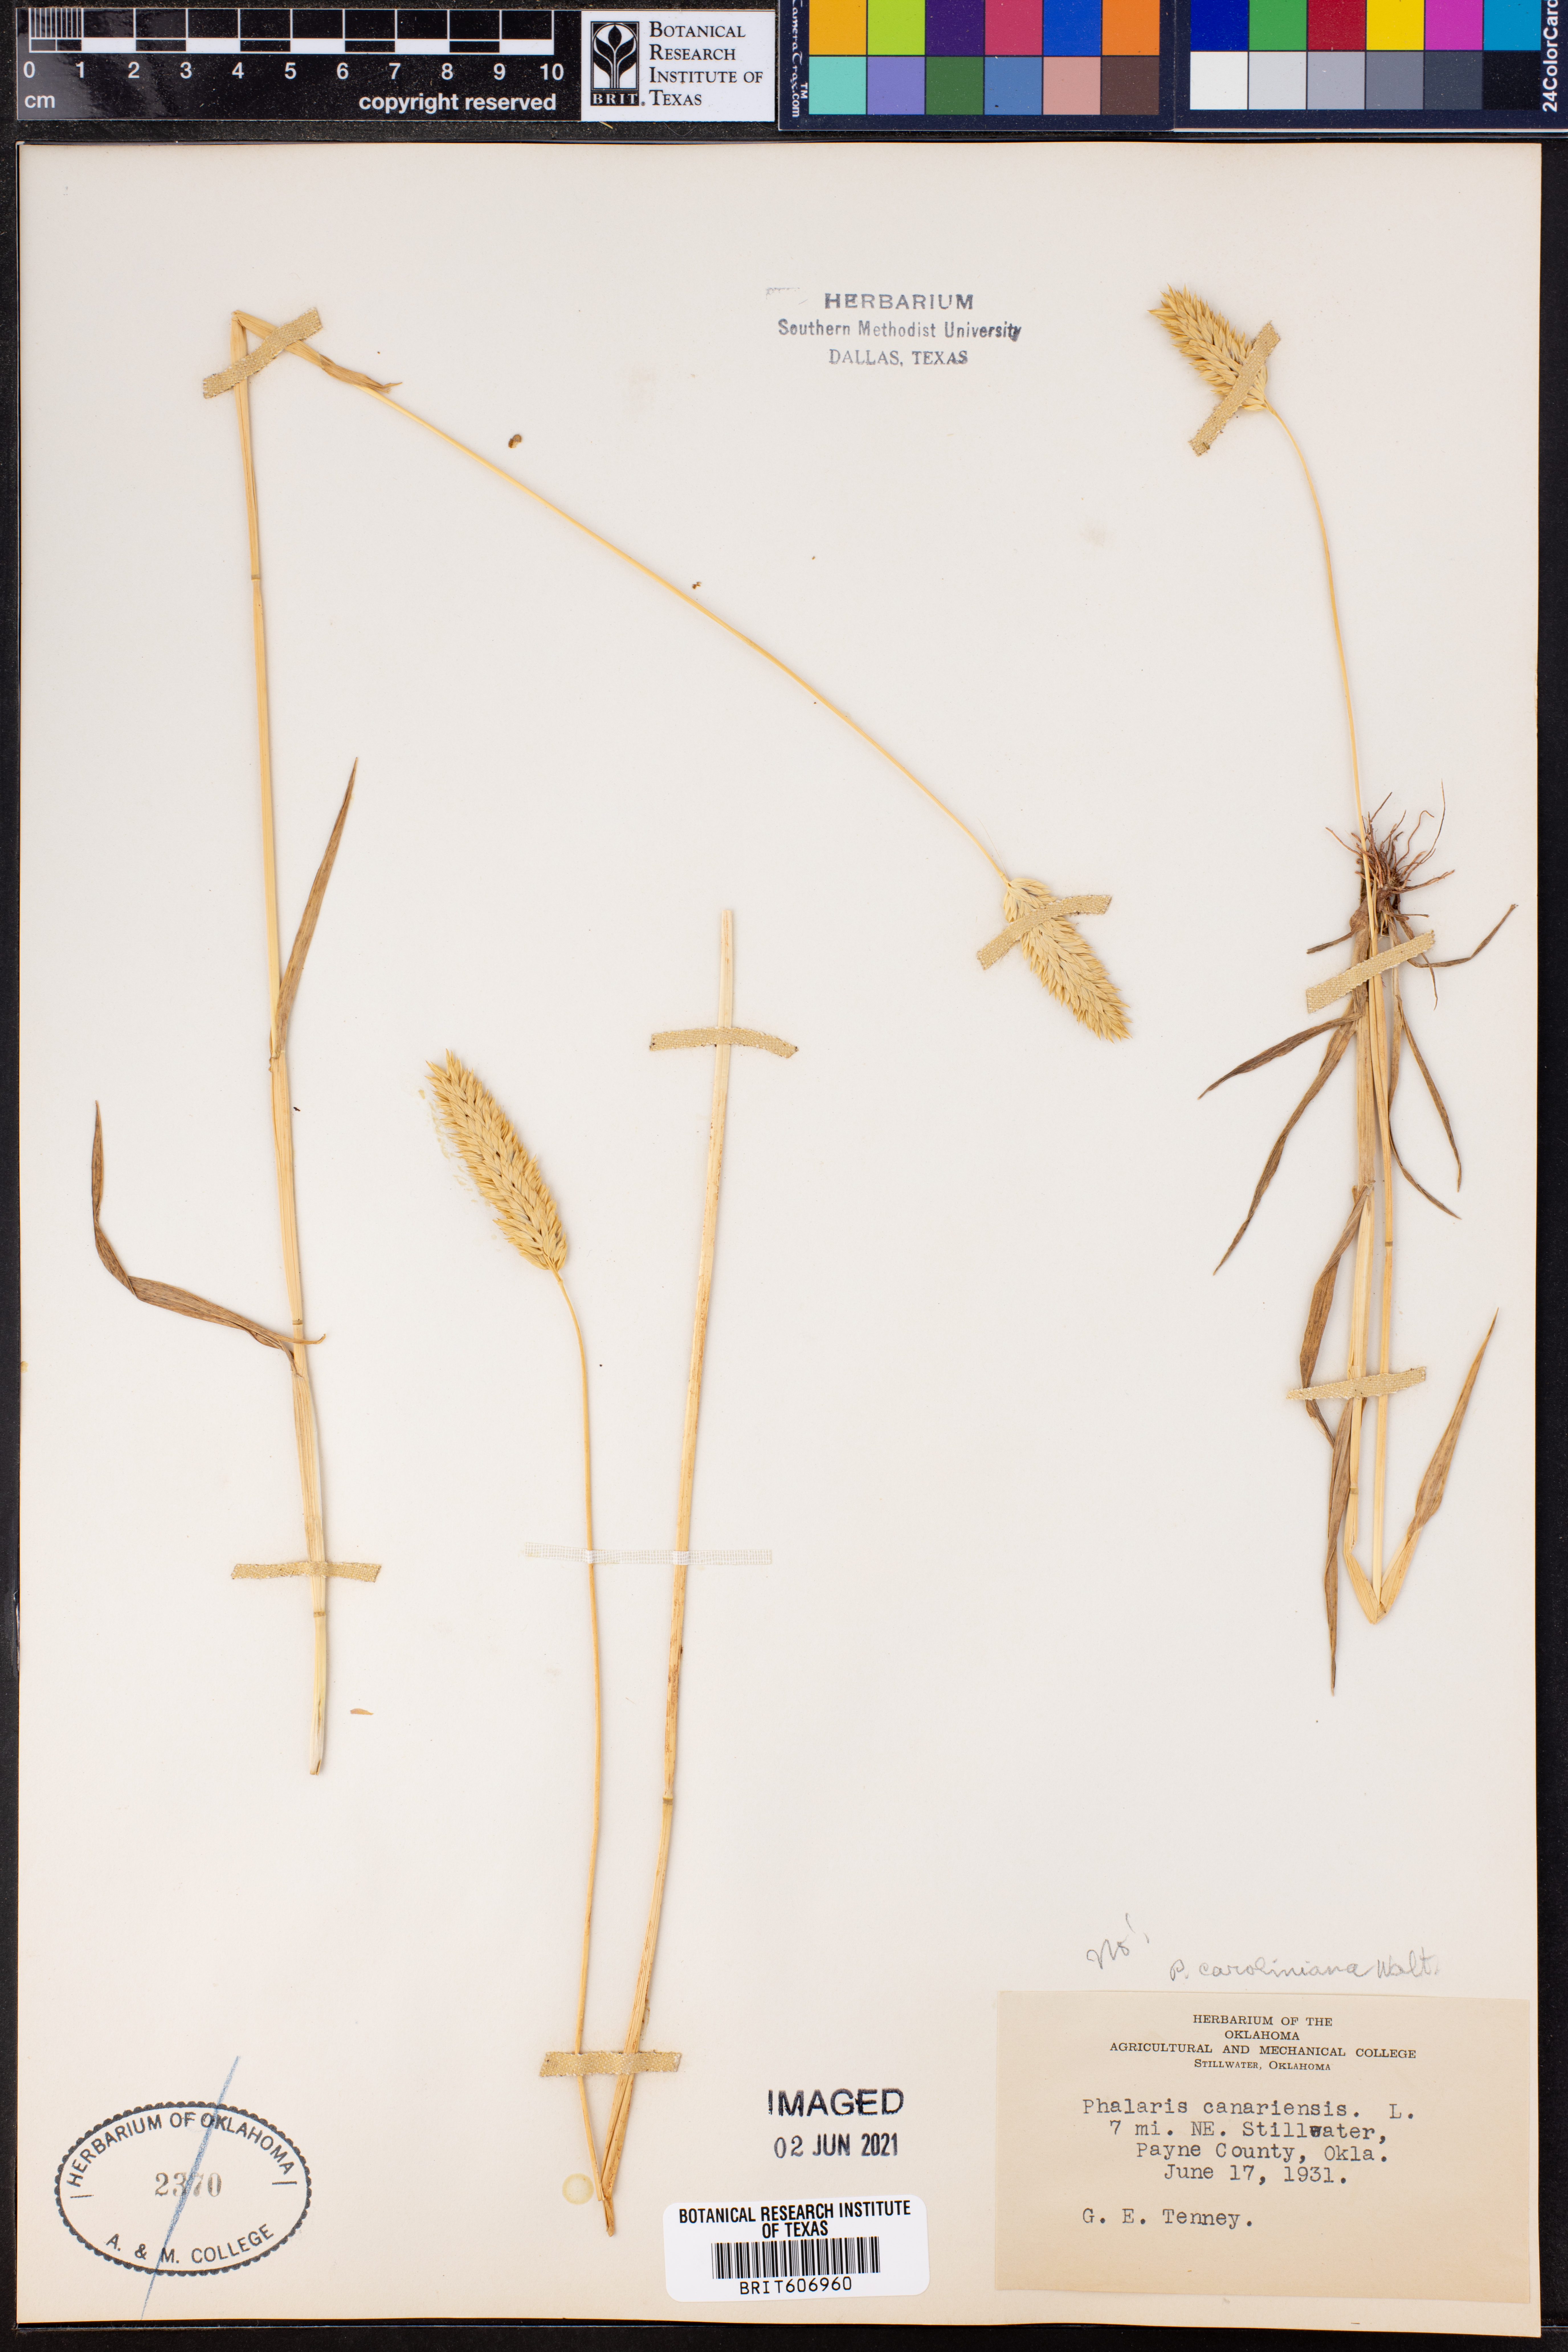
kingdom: Plantae
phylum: Tracheophyta
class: Liliopsida
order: Poales
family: Poaceae
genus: Phalaris
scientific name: Phalaris caroliniana
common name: May grass
